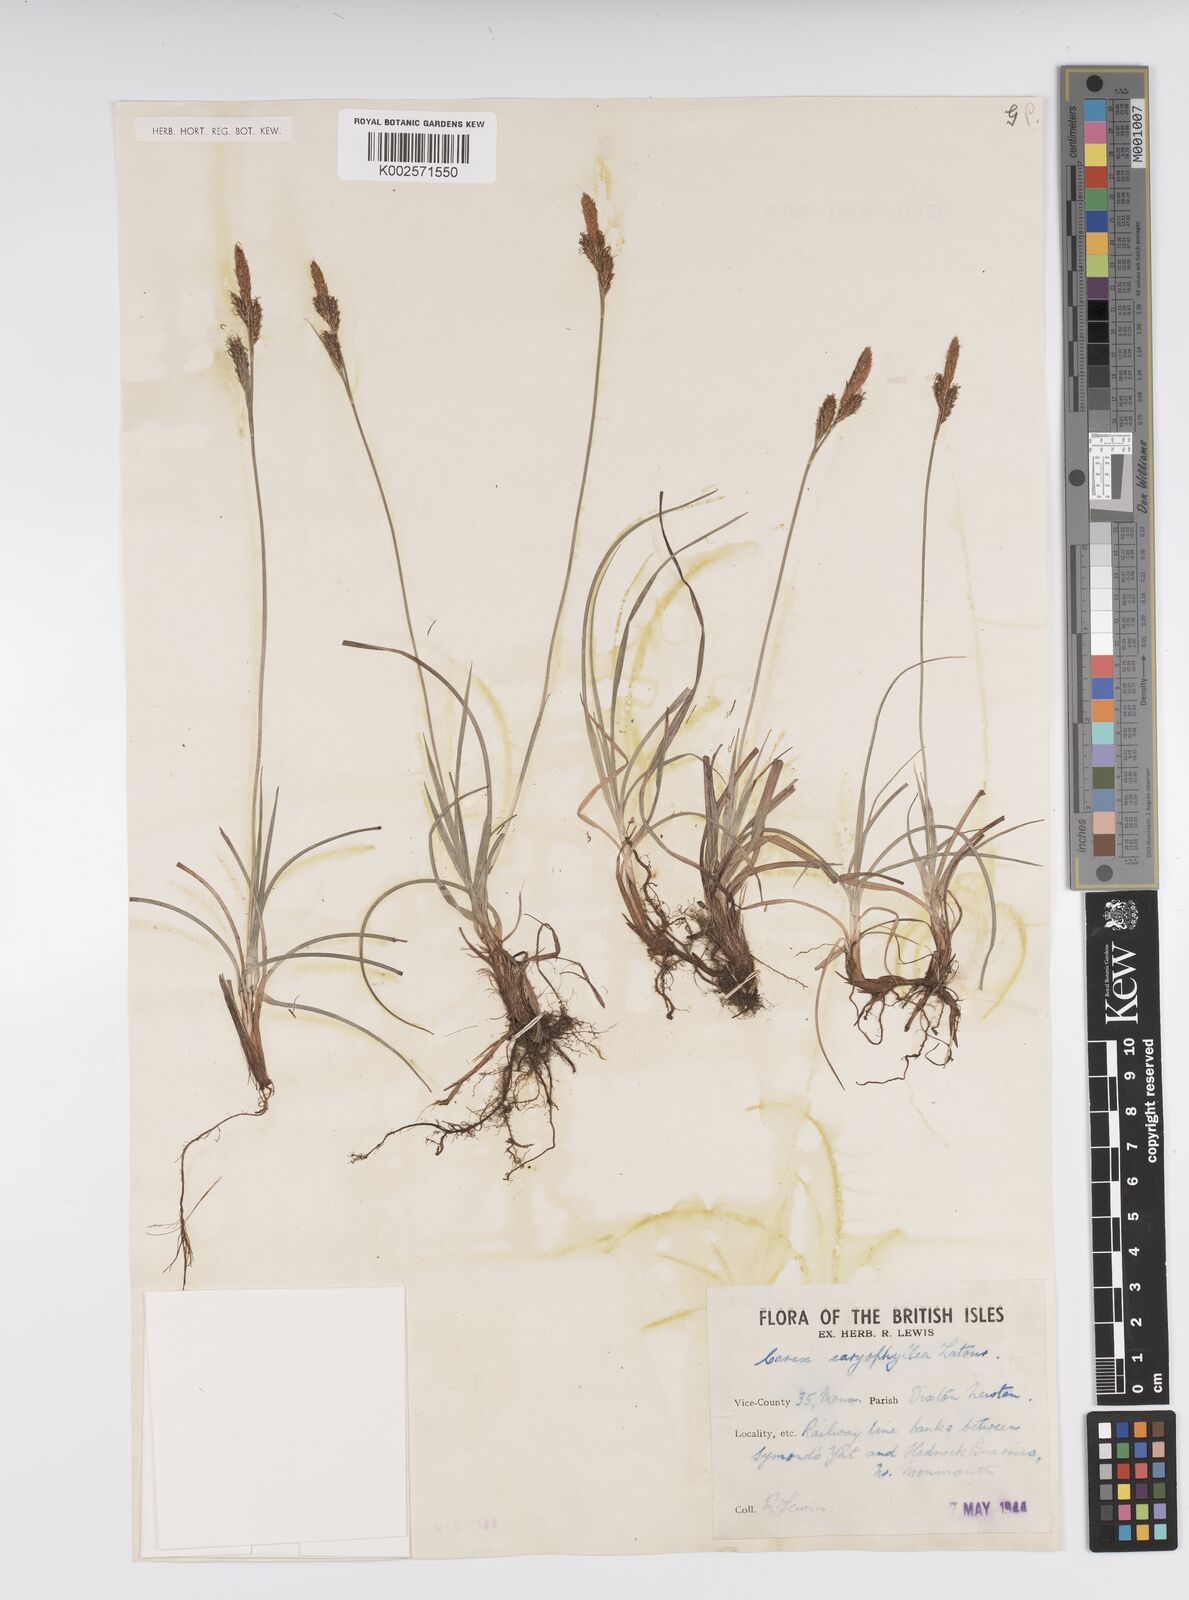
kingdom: Plantae
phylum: Tracheophyta
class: Liliopsida
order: Poales
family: Cyperaceae
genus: Carex
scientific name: Carex caryophyllea
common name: Spring sedge
